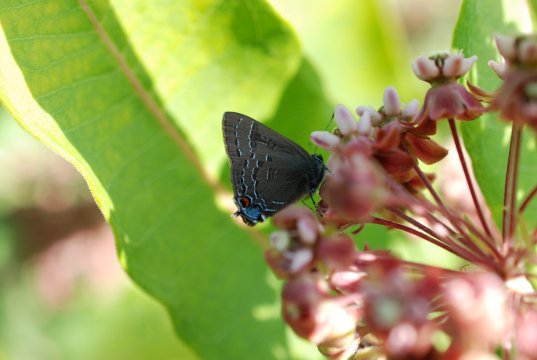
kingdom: Animalia
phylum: Arthropoda
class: Insecta
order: Lepidoptera
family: Lycaenidae
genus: Satyrium
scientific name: Satyrium calanus
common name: Banded Hairstreak
